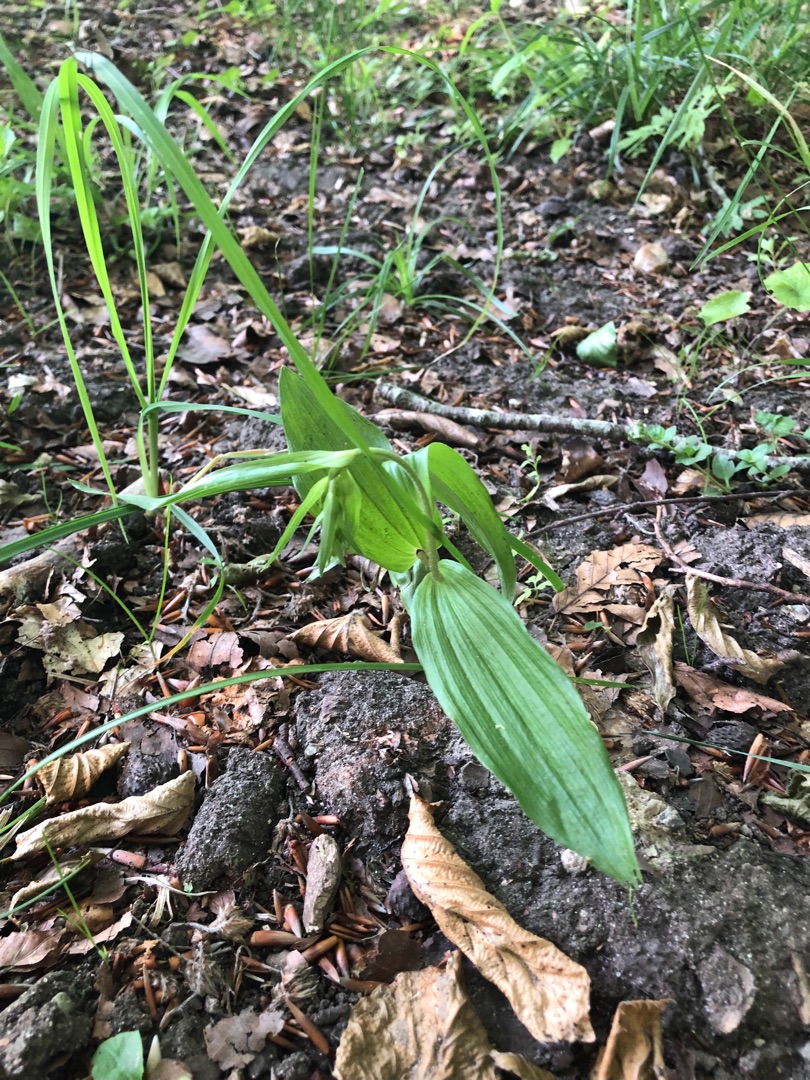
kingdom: Plantae
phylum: Tracheophyta
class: Liliopsida
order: Asparagales
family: Orchidaceae
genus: Epipactis
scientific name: Epipactis helleborine
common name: Skov-hullæbe
